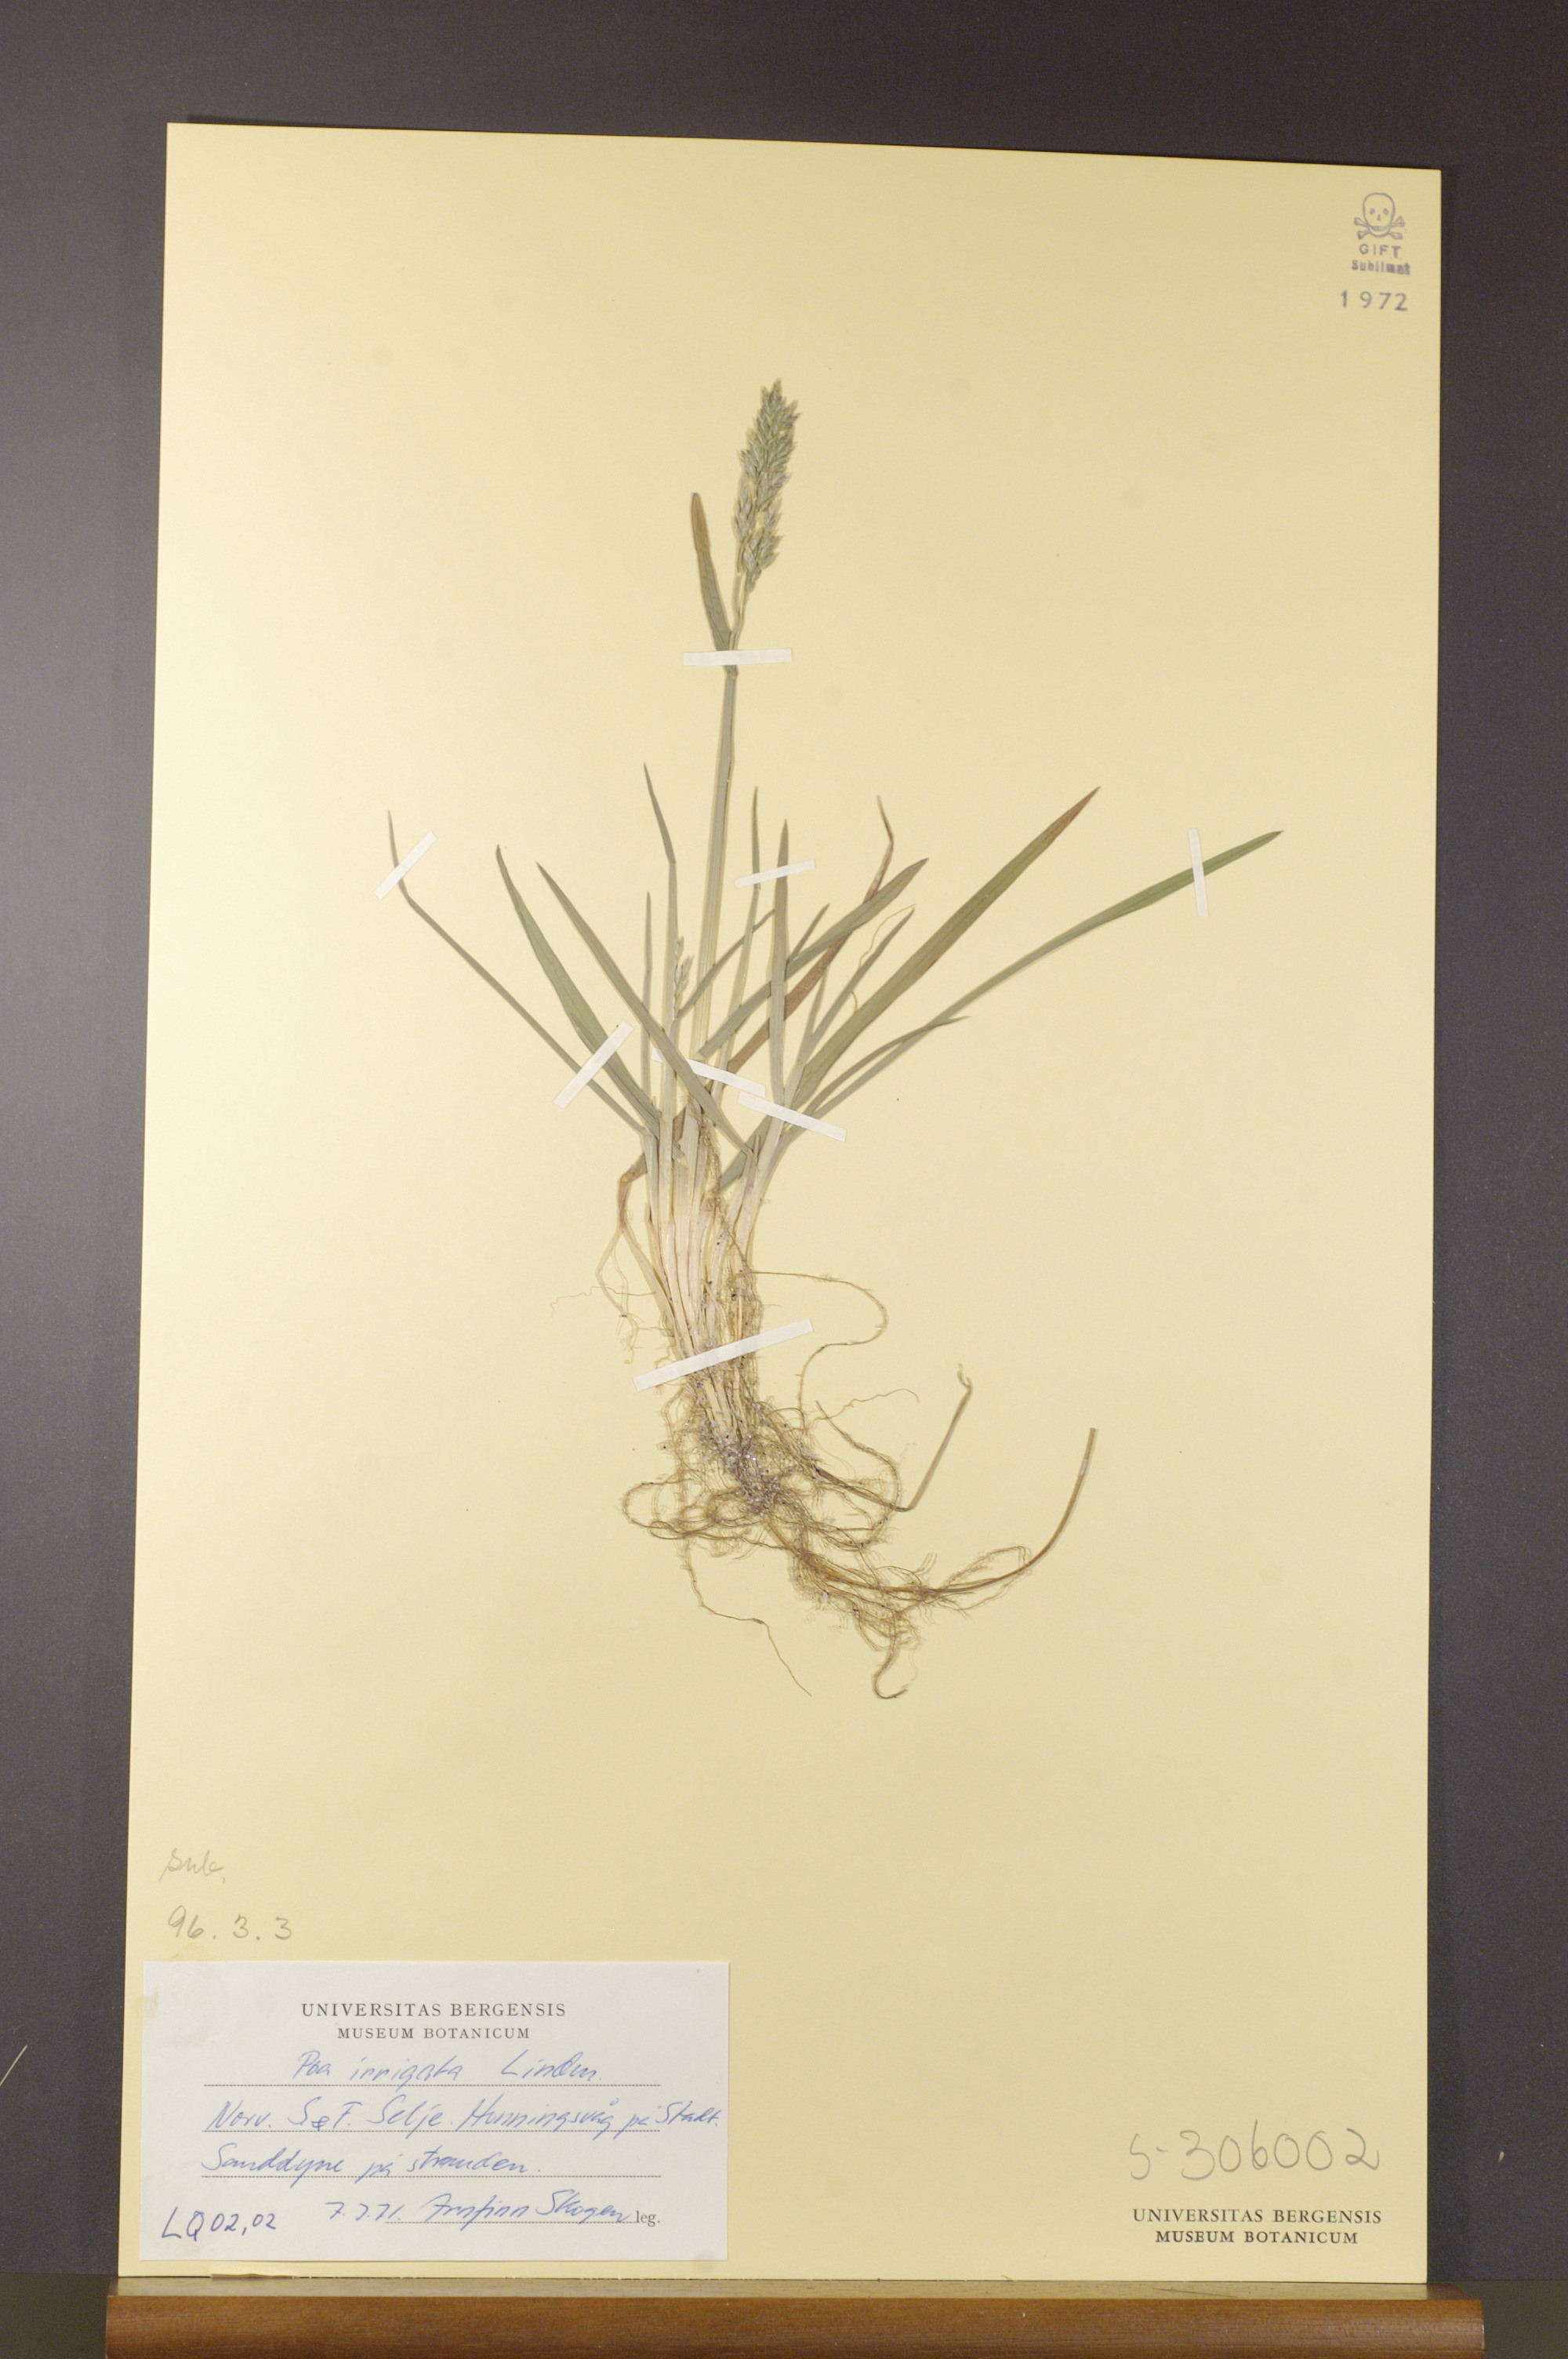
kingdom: Plantae
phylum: Tracheophyta
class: Liliopsida
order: Poales
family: Poaceae
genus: Poa
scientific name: Poa humilis
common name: Spreading meadow-grass
